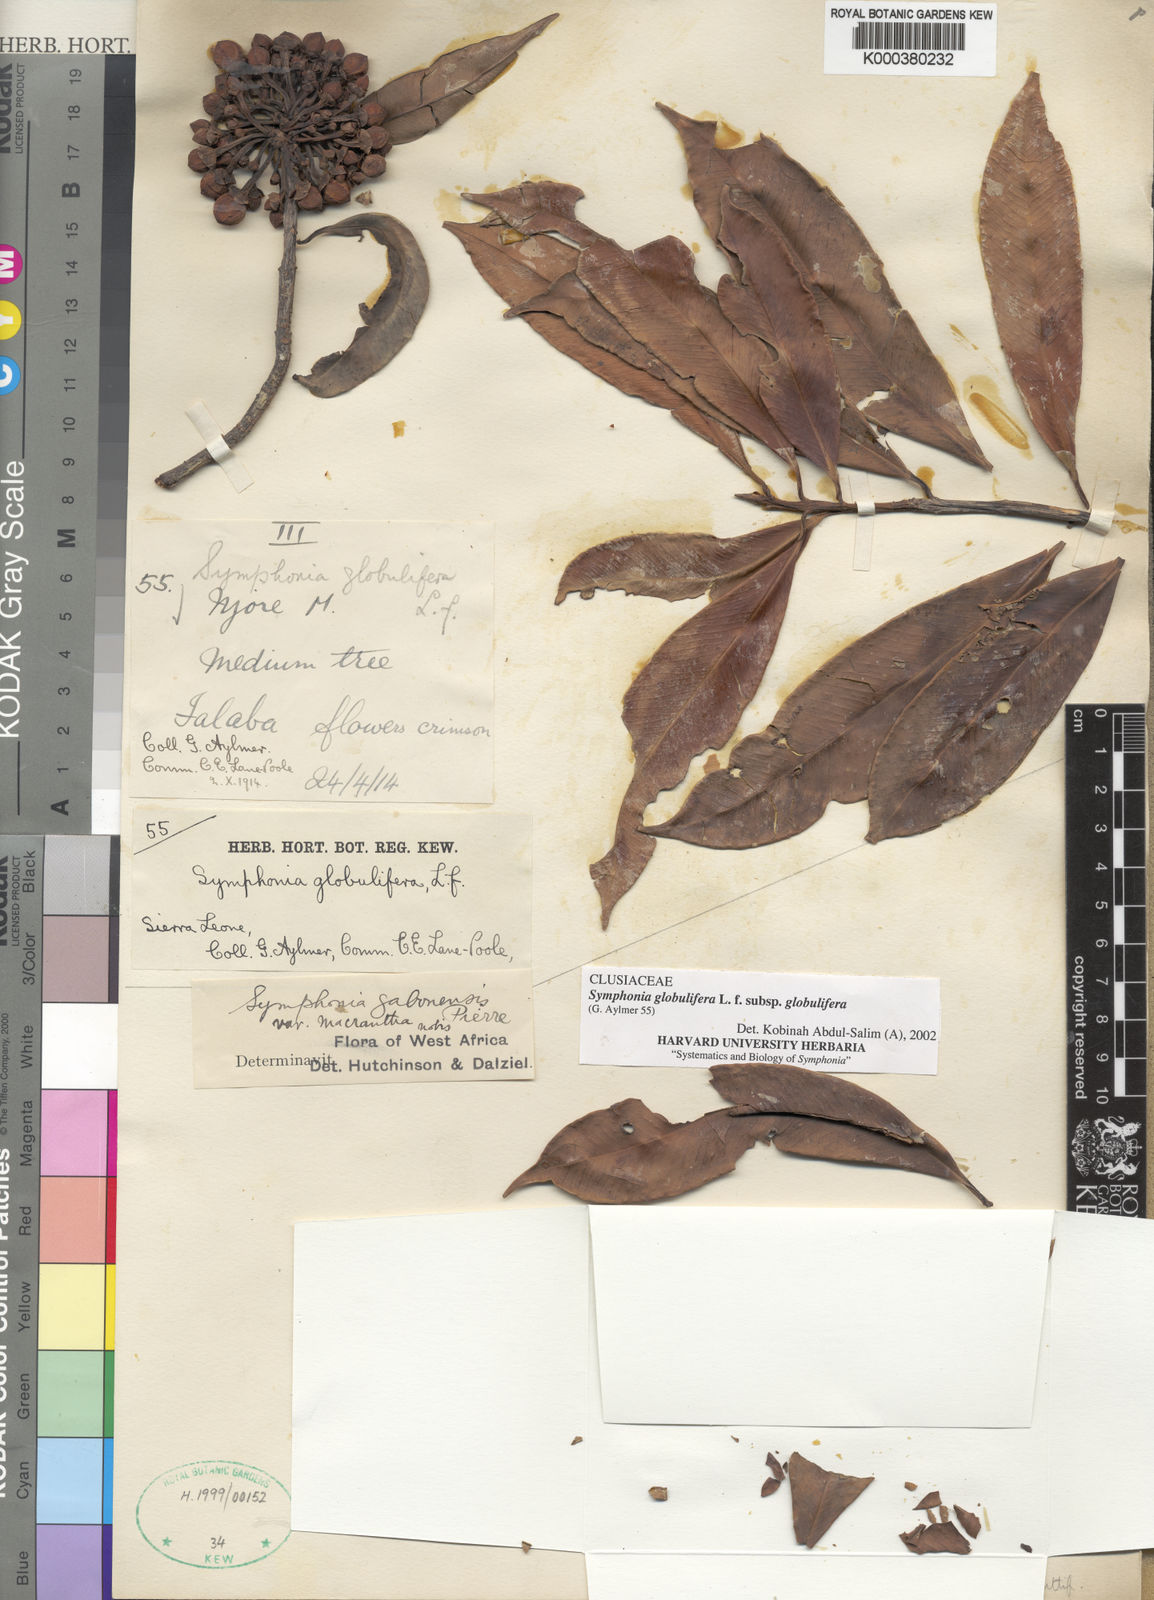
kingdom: Plantae
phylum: Tracheophyta
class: Magnoliopsida
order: Malpighiales
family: Clusiaceae
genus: Symphonia
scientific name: Symphonia globulifera
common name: Boarwood
